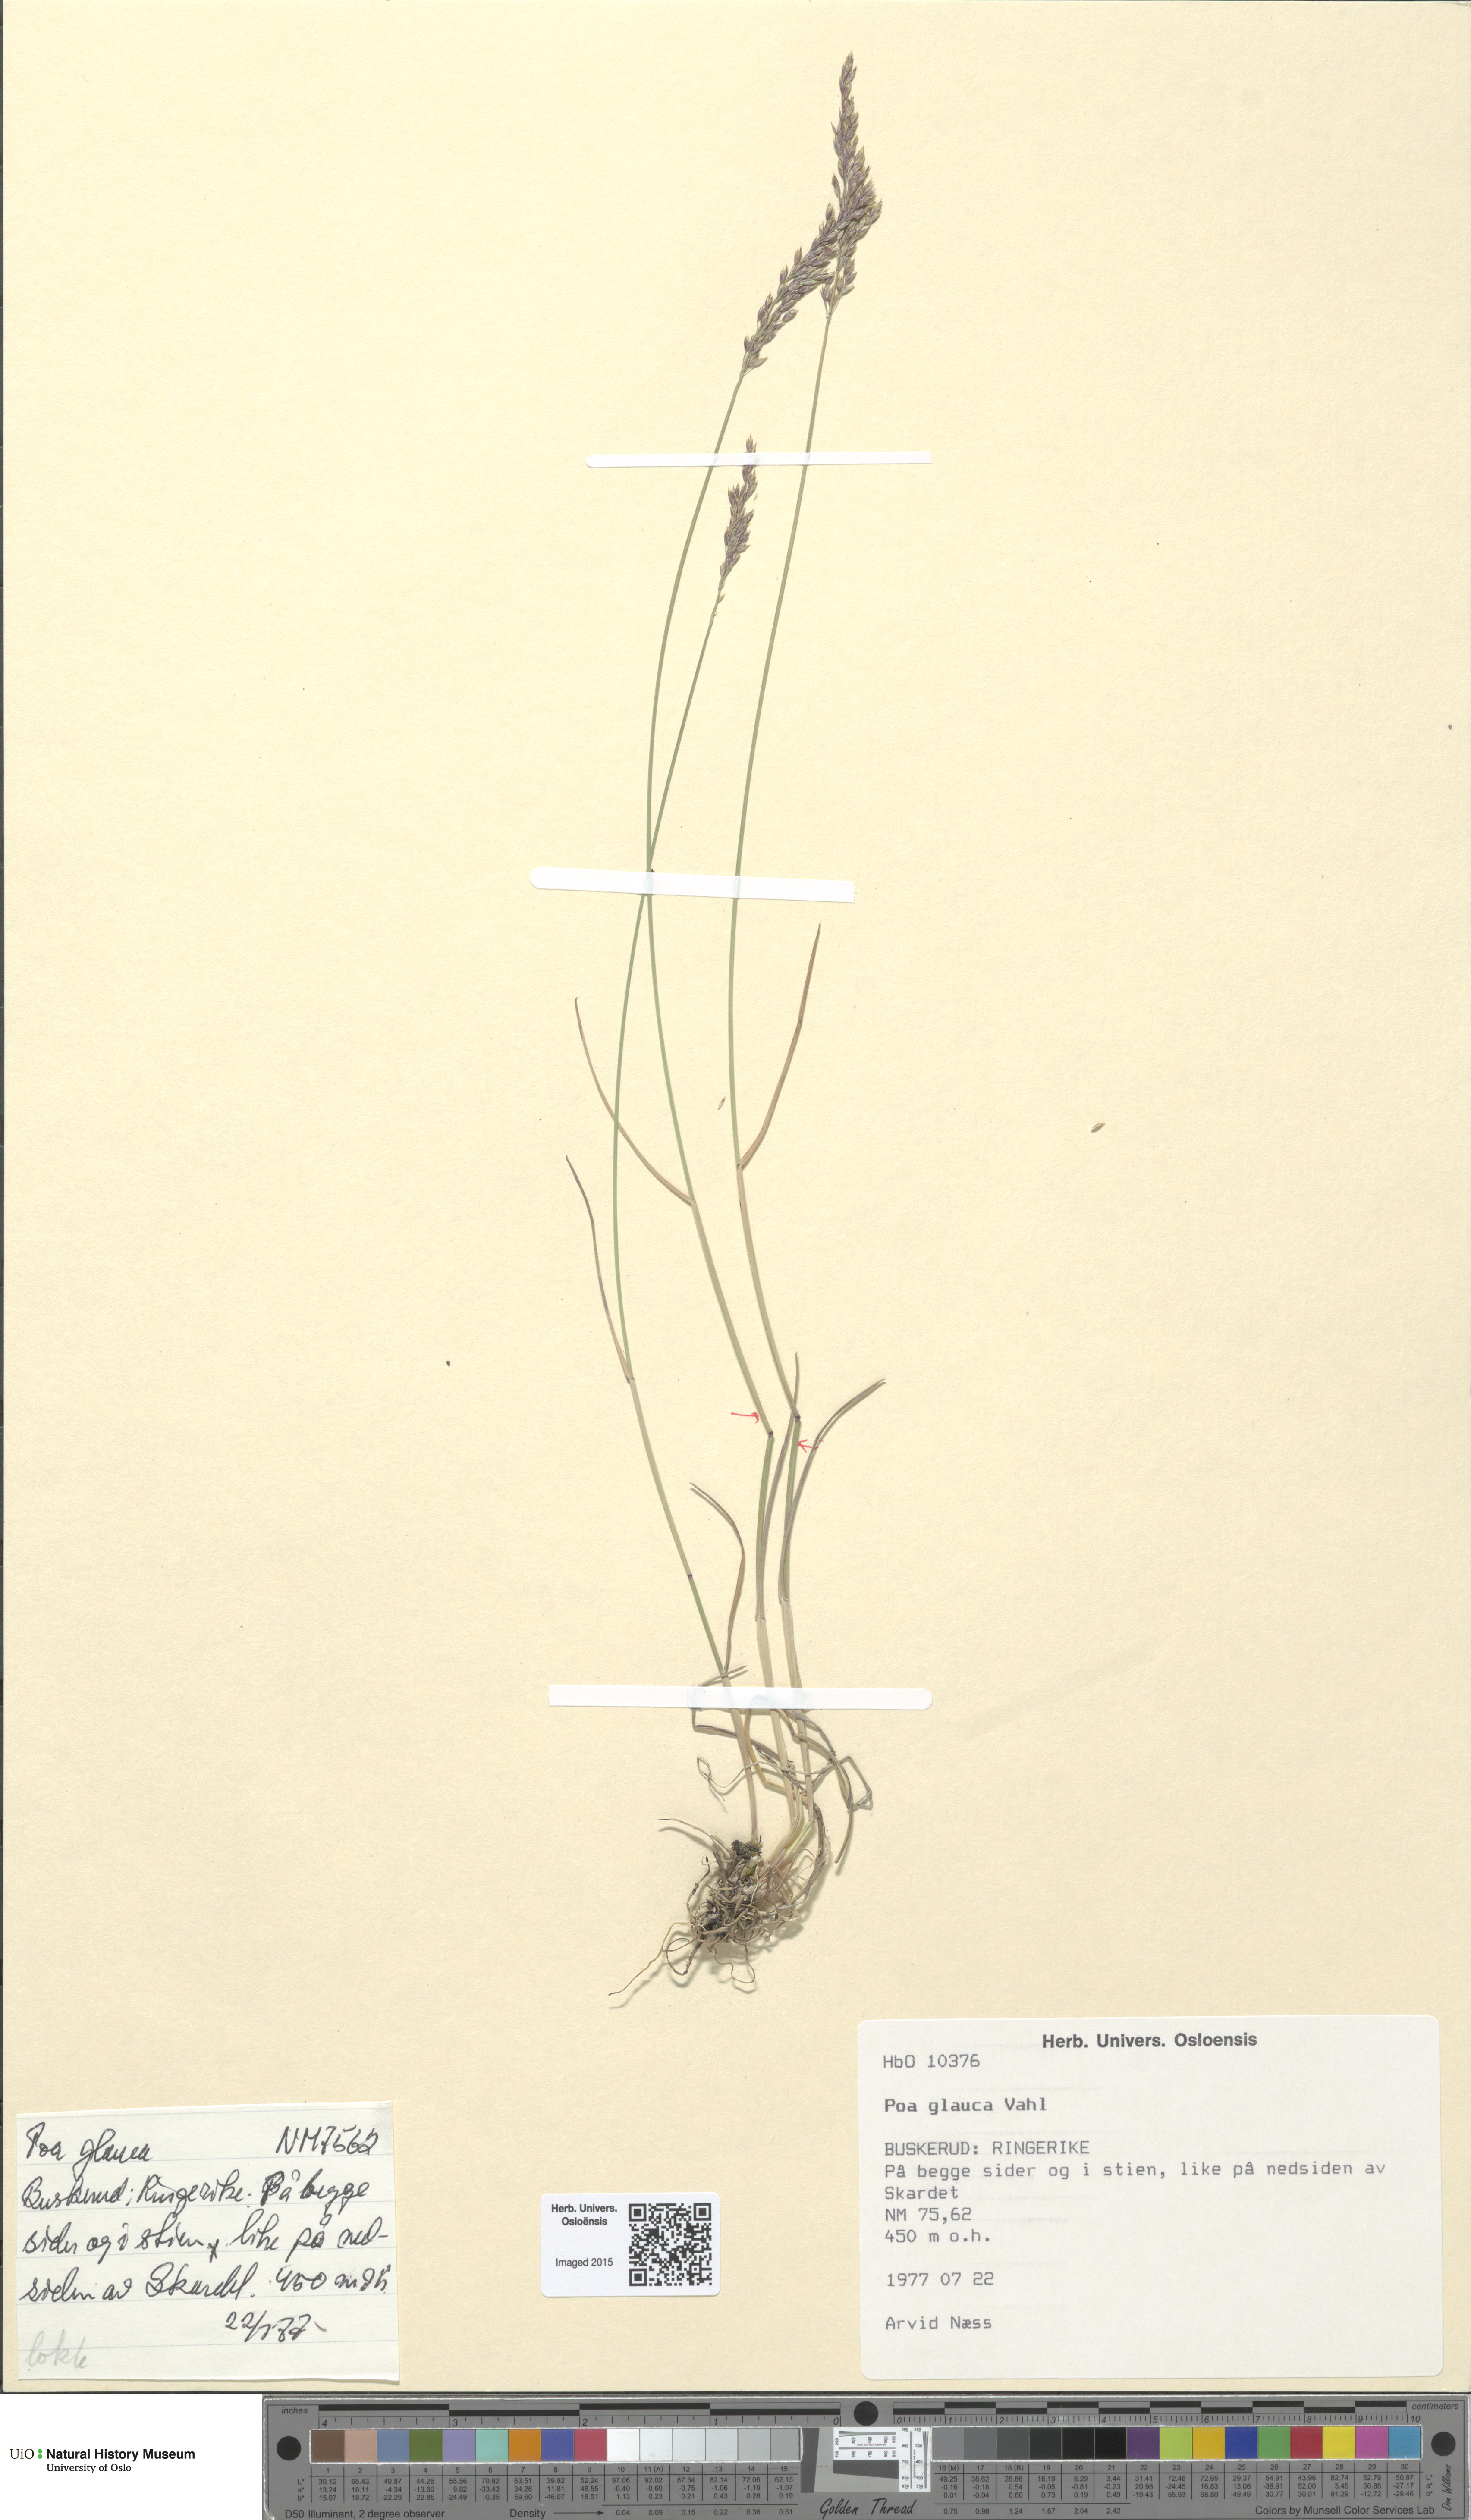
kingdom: Plantae
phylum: Tracheophyta
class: Liliopsida
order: Poales
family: Poaceae
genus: Poa
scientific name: Poa glauca
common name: Glaucous bluegrass
